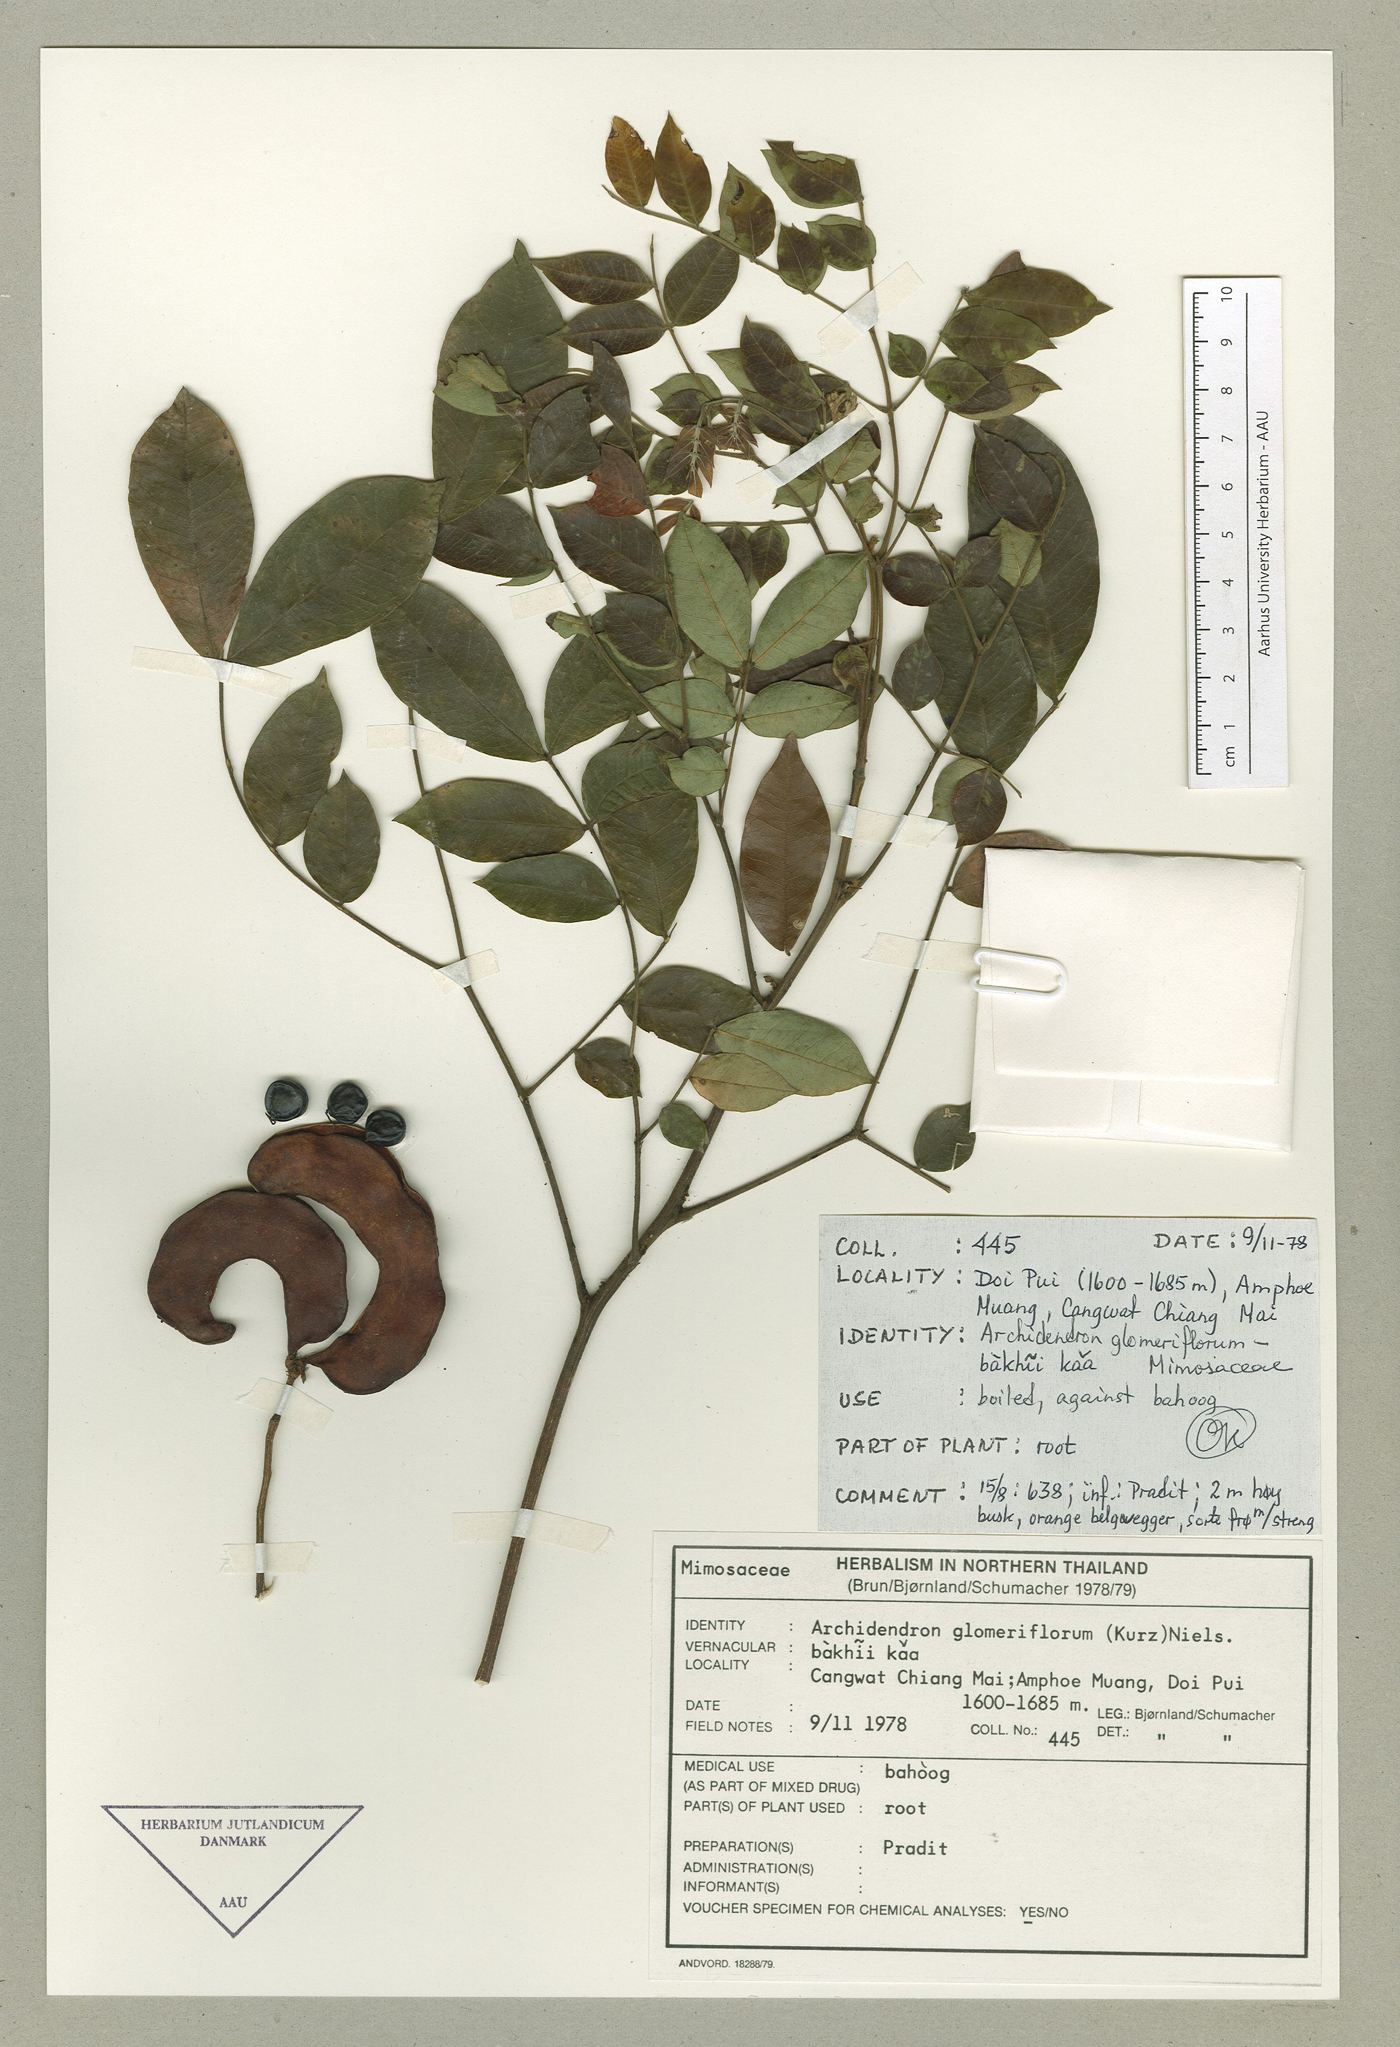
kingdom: Plantae
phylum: Tracheophyta
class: Magnoliopsida
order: Fabales
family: Fabaceae
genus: Archidendron
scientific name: Archidendron glomeriflorum
